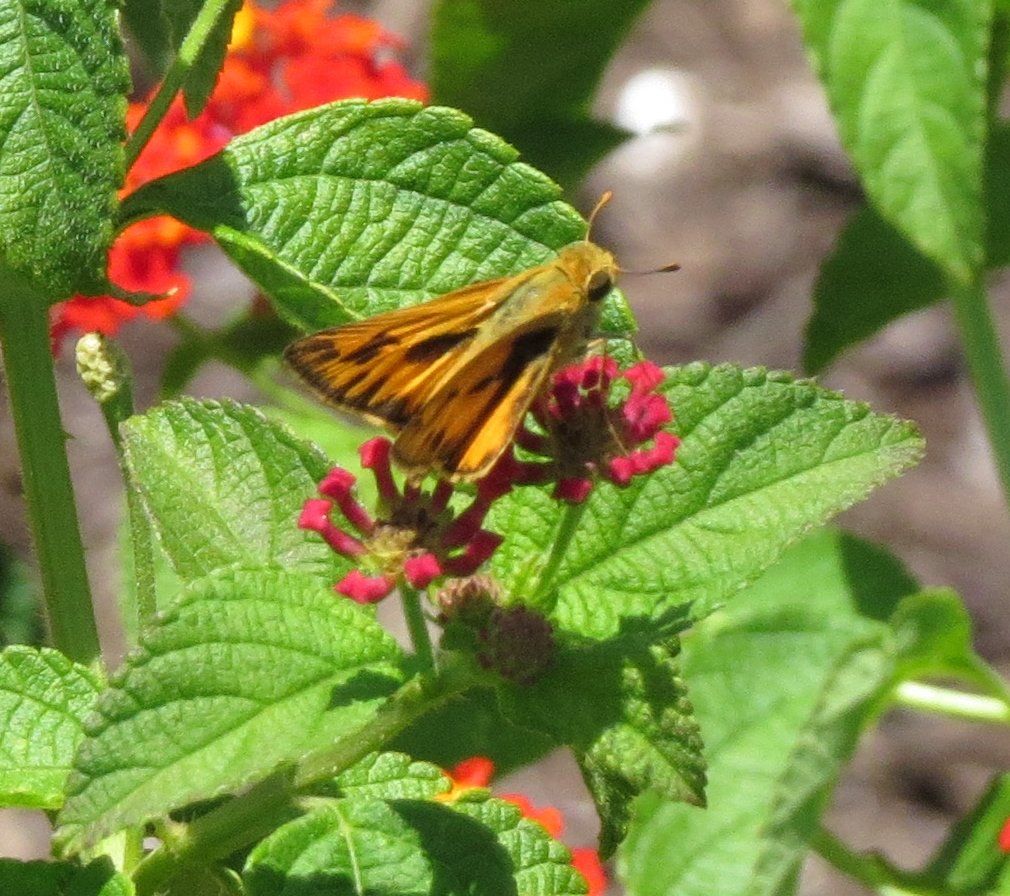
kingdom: Animalia
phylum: Arthropoda
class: Insecta
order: Lepidoptera
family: Hesperiidae
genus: Hylephila
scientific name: Hylephila phyleus
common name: Fiery Skipper
